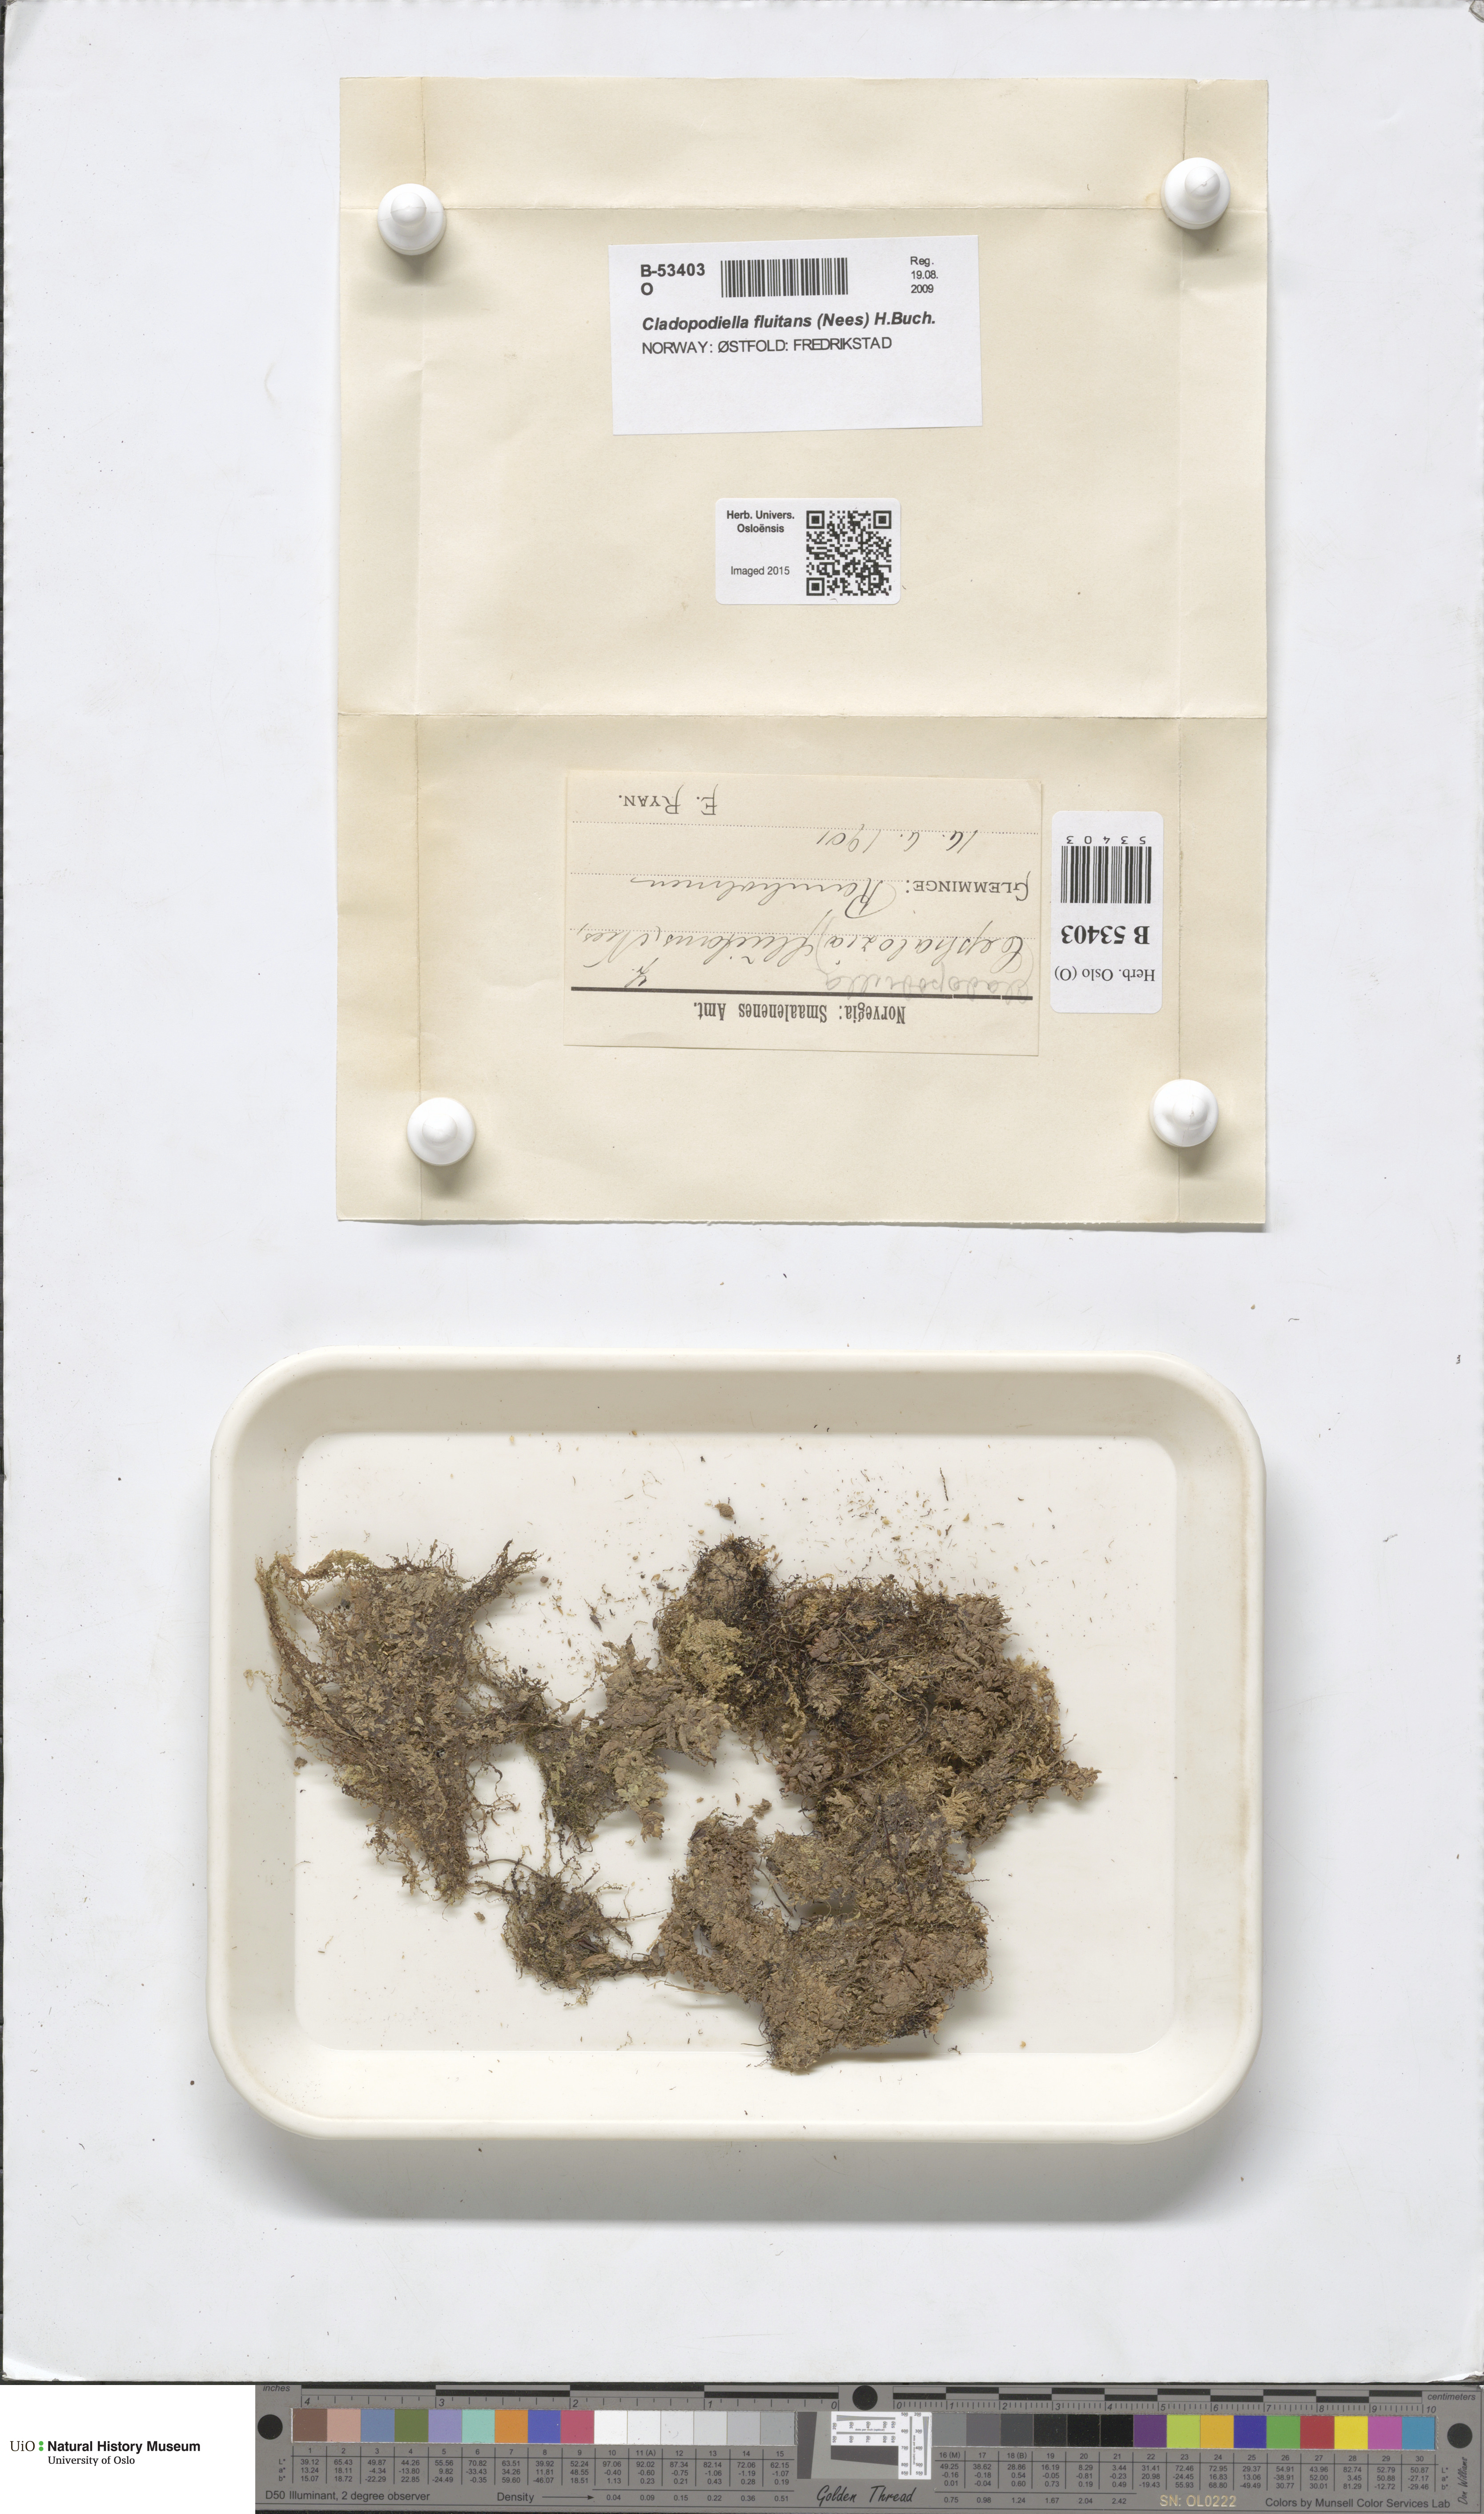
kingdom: Plantae
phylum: Marchantiophyta
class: Jungermanniopsida
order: Jungermanniales
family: Cephaloziaceae
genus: Odontoschisma
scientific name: Odontoschisma fluitans
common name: Cladopodiella moss
